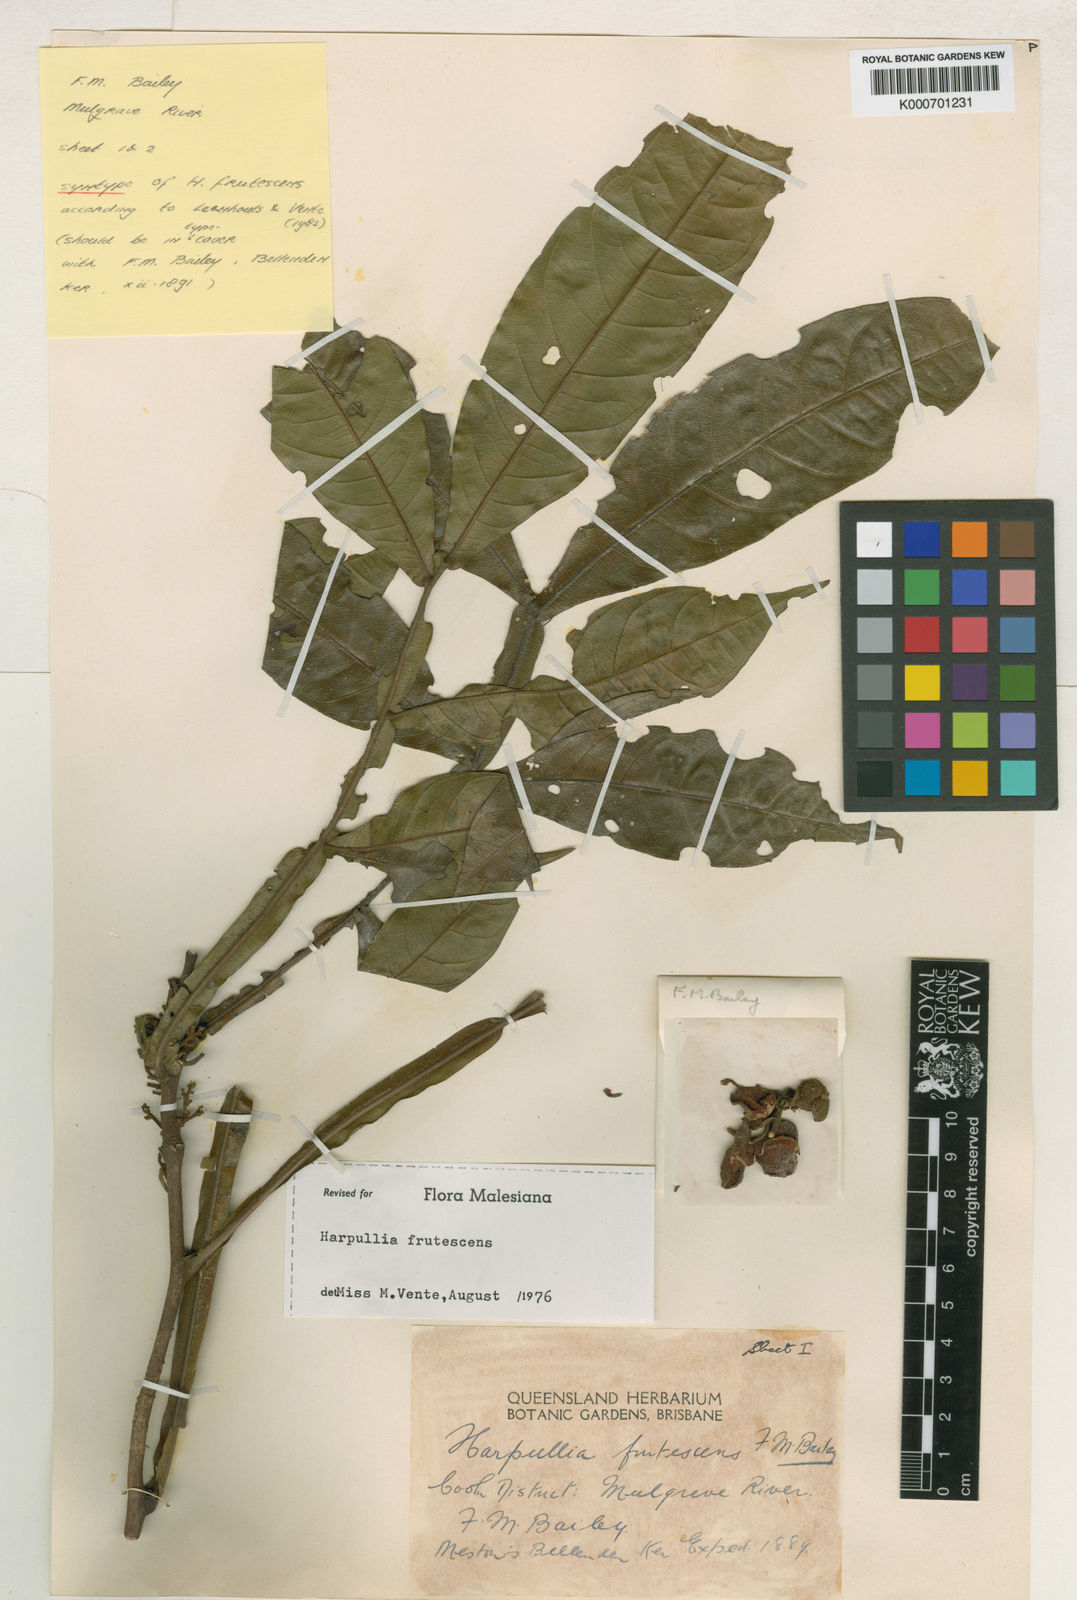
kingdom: Plantae
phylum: Tracheophyta
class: Magnoliopsida
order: Sapindales
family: Sapindaceae
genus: Harpullia
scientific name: Harpullia frutescens
